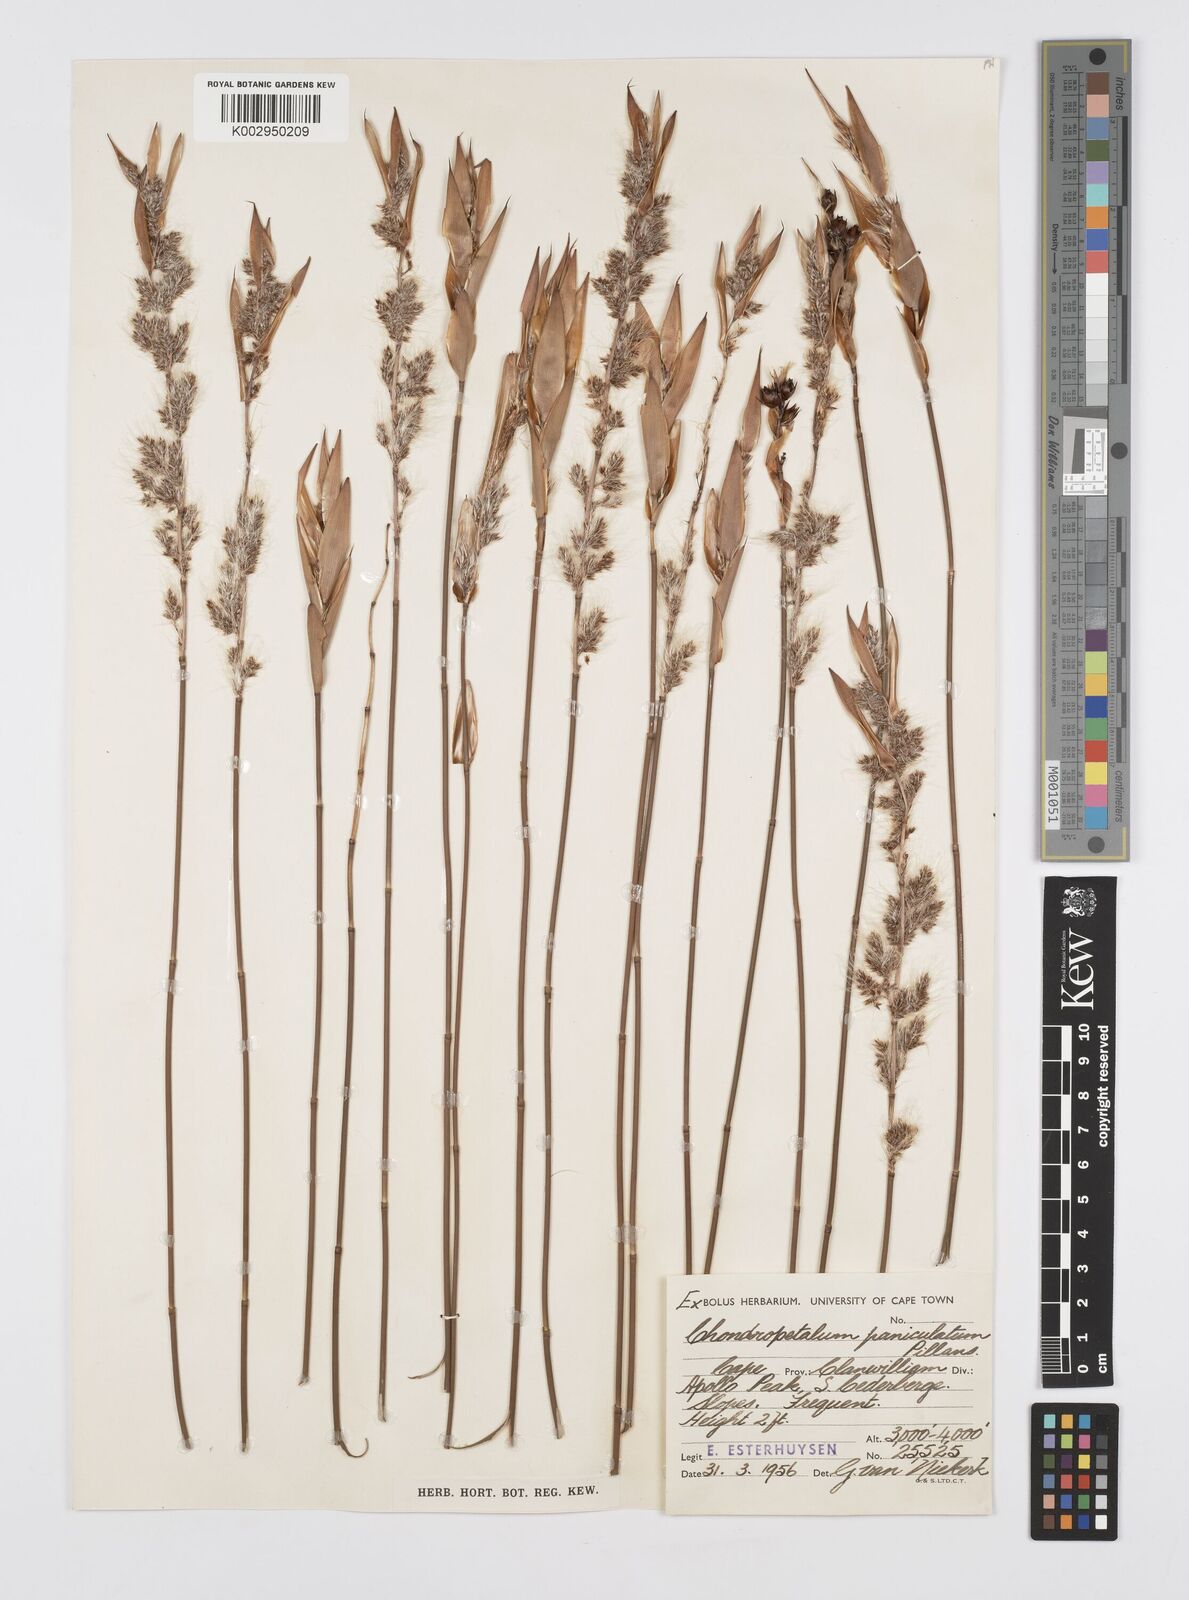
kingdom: Plantae
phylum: Tracheophyta
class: Liliopsida
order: Poales
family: Restionaceae
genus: Askidiosperma
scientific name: Askidiosperma paniculatum
